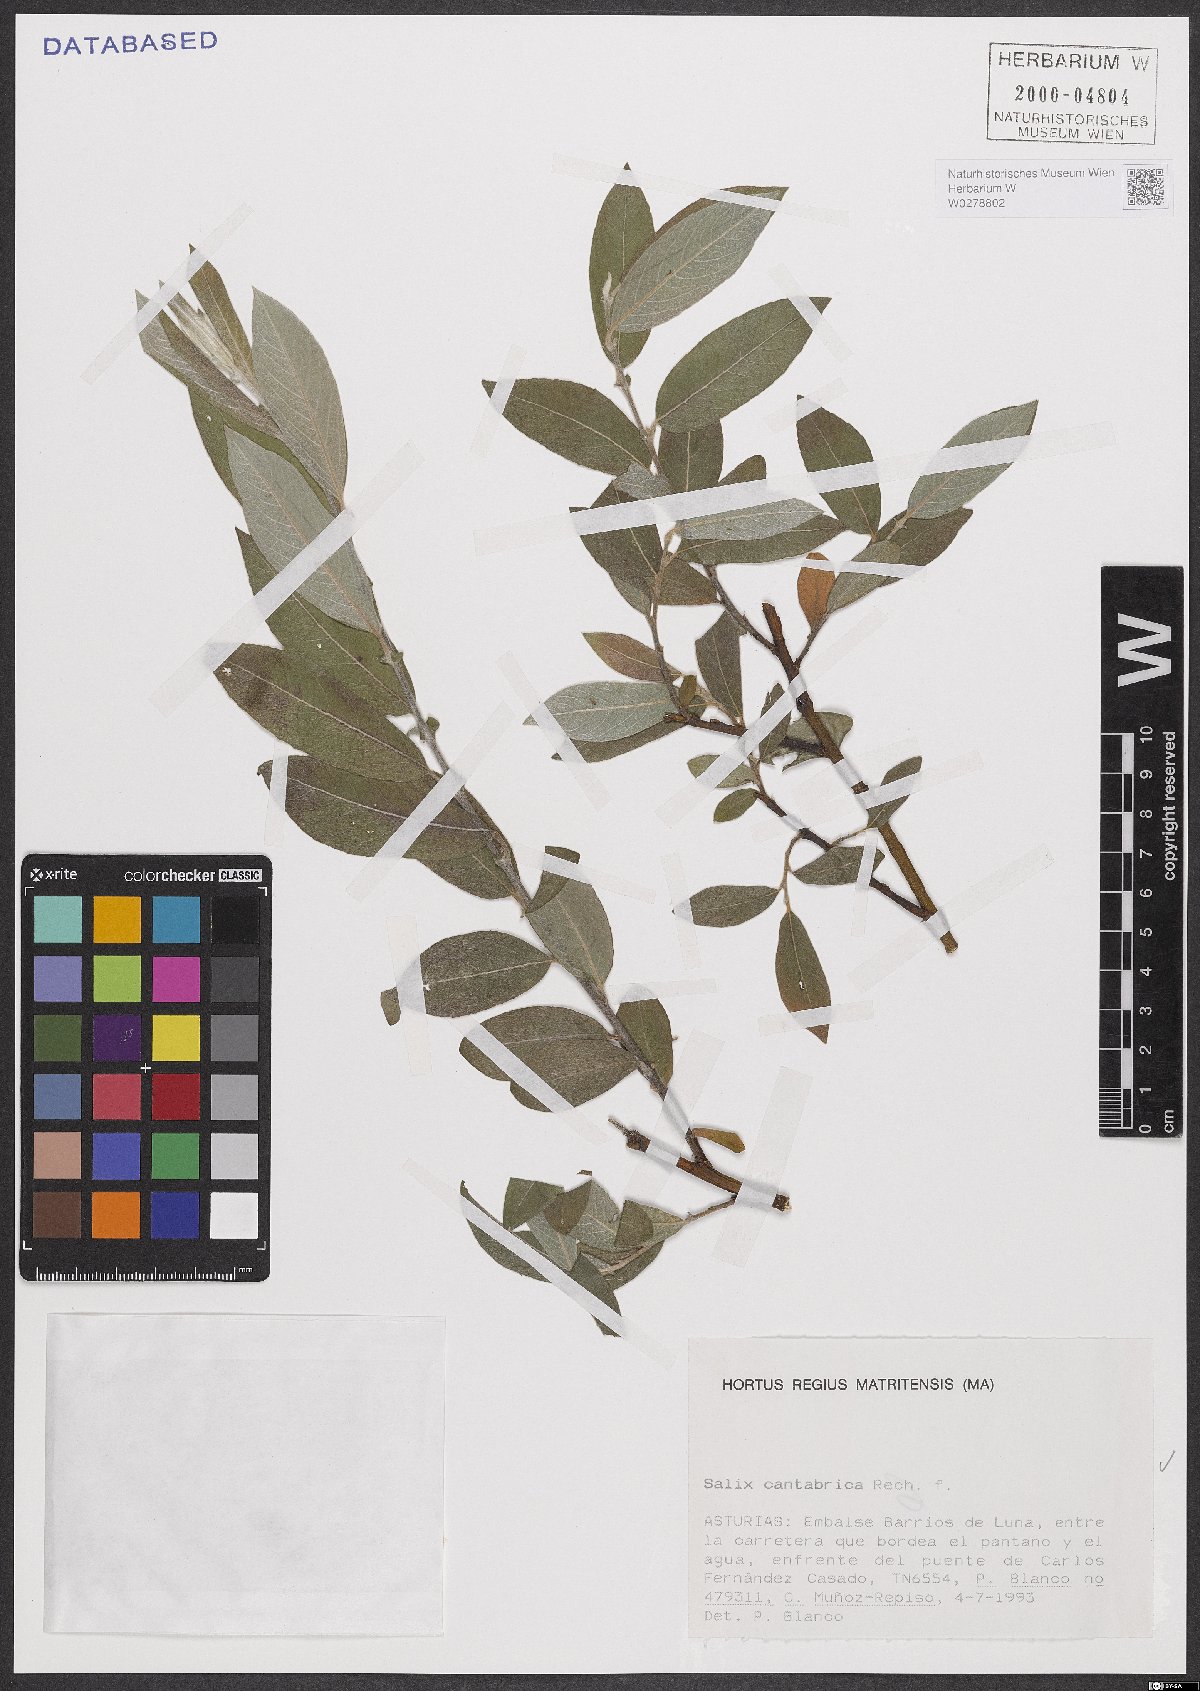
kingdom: Plantae
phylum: Tracheophyta
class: Magnoliopsida
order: Malpighiales
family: Salicaceae
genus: Salix
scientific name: Salix cantabrica
